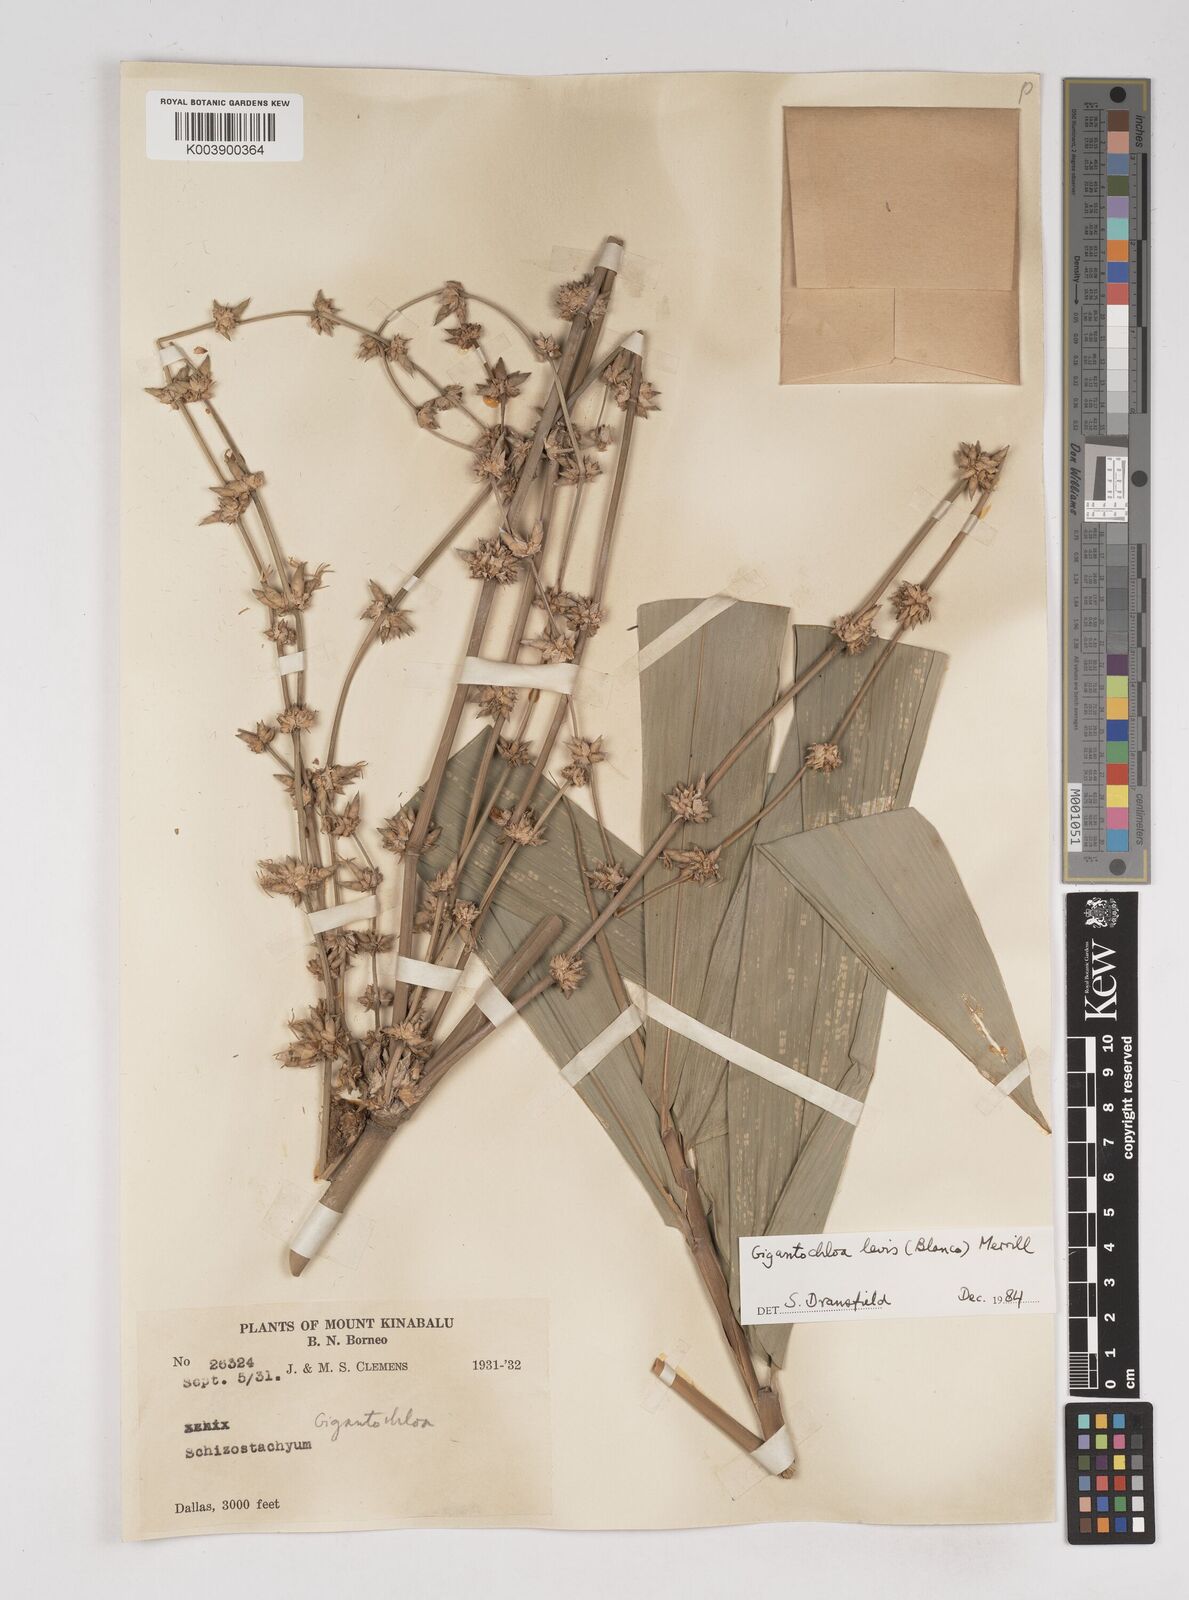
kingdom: Plantae
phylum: Tracheophyta
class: Liliopsida
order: Poales
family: Poaceae
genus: Gigantochloa
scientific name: Gigantochloa levis
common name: Smooth-shoot gigantochloa
